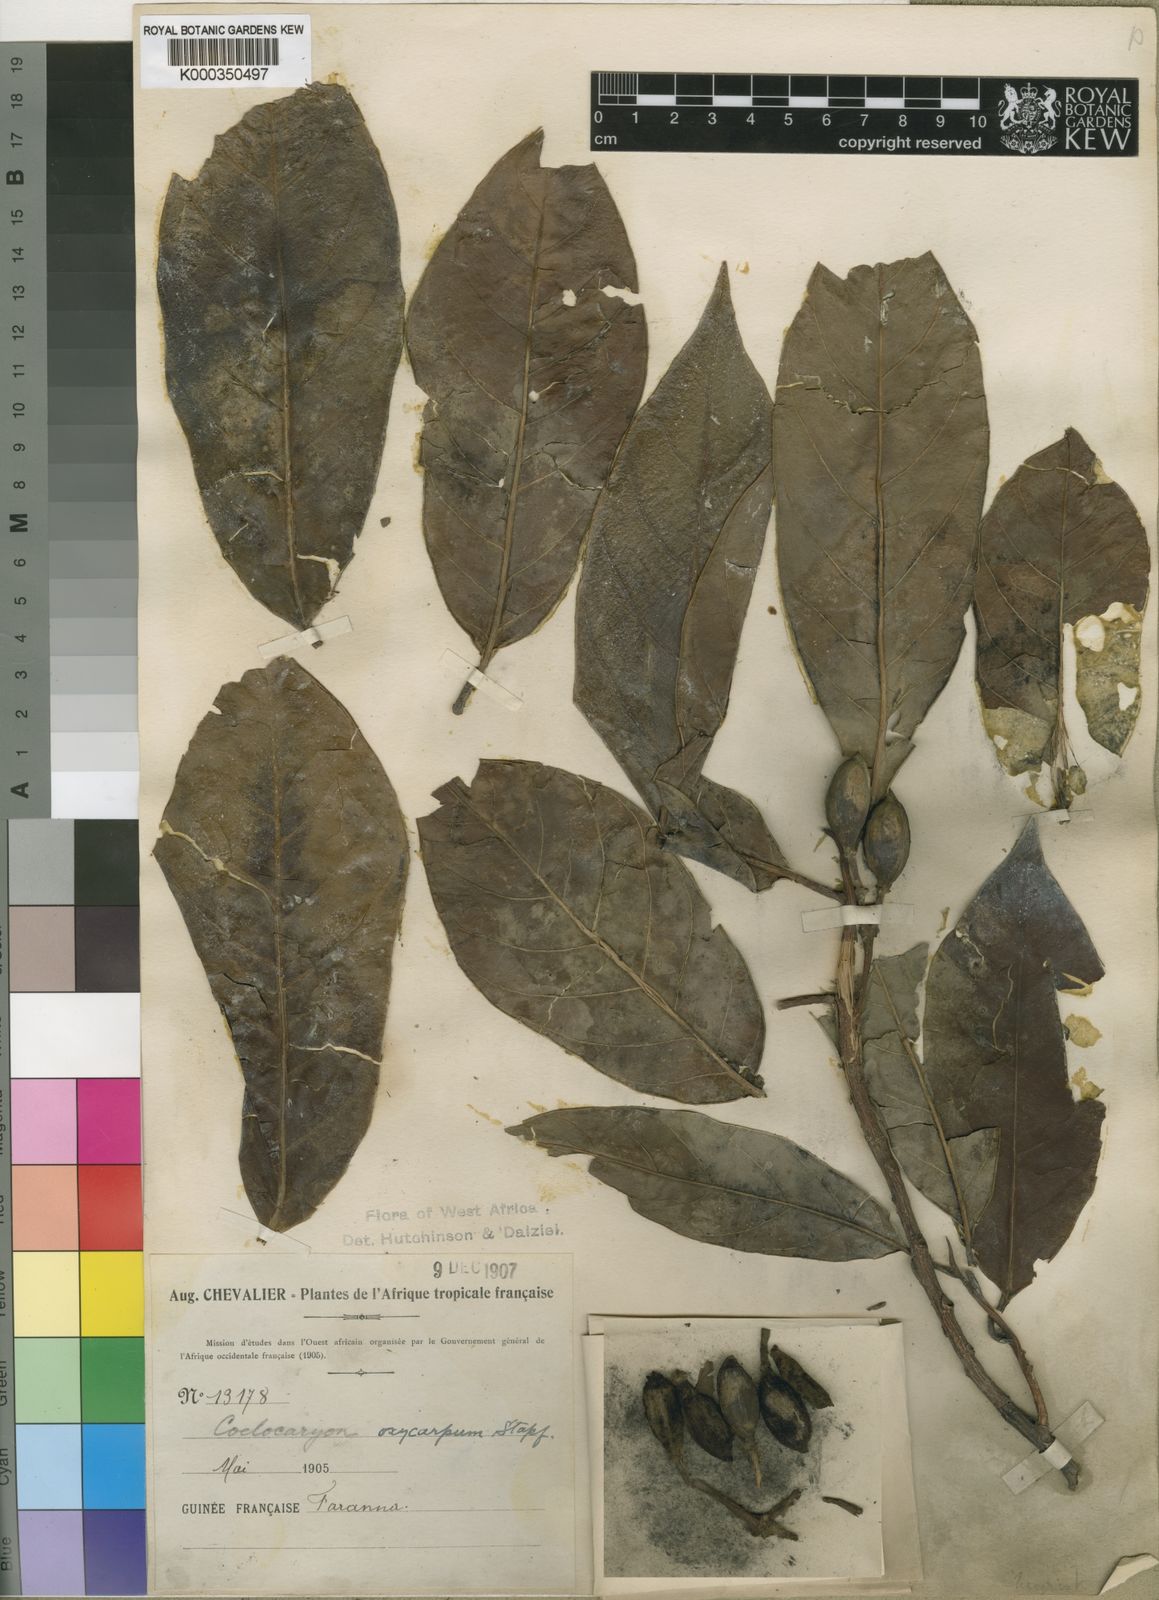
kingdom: Plantae
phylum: Tracheophyta
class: Magnoliopsida
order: Magnoliales
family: Myristicaceae
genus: Coelocaryon
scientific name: Coelocaryon oxycarpum
